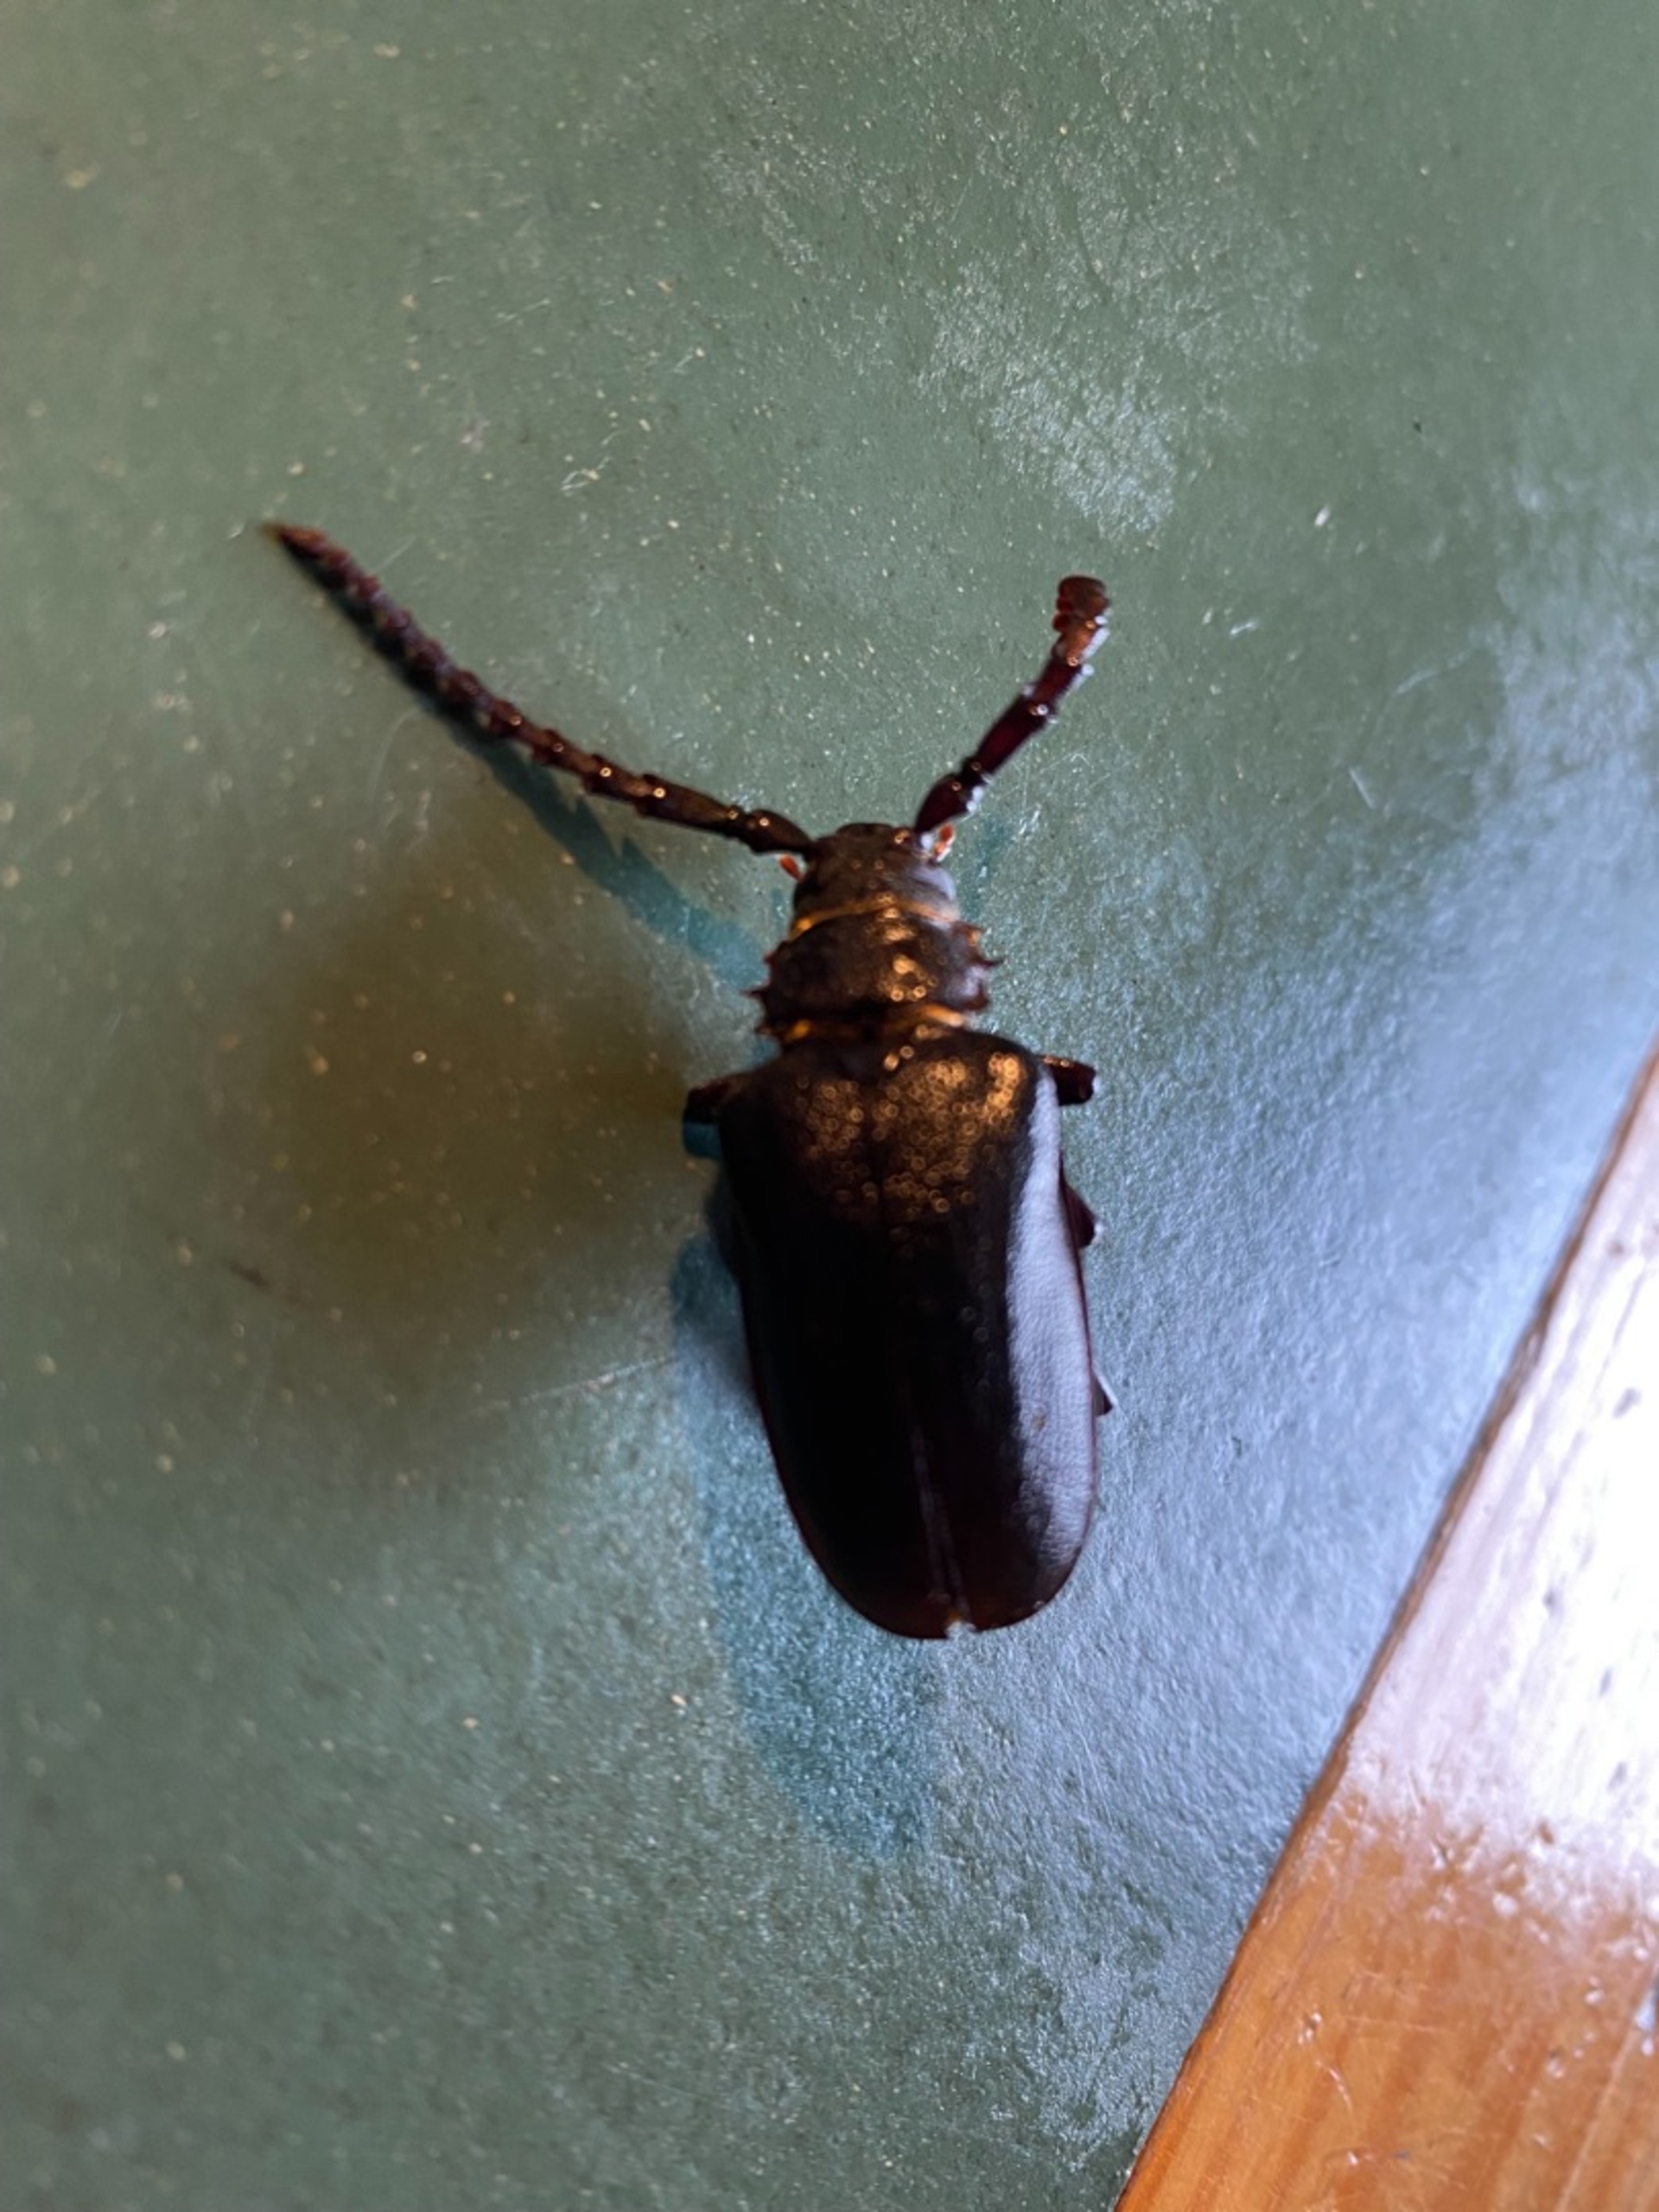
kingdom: Animalia
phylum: Arthropoda
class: Insecta
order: Coleoptera
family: Cerambycidae
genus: Prionus
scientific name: Prionus coriarius
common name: Garver
